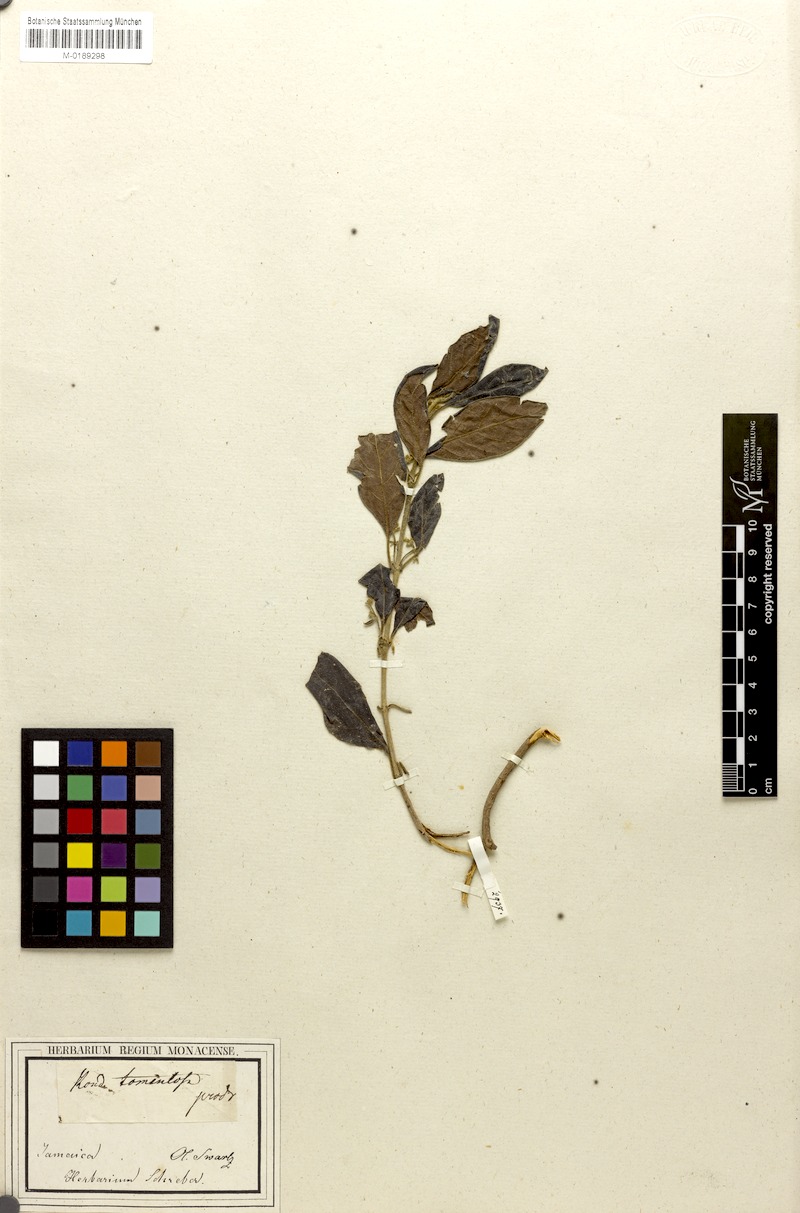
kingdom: Plantae
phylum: Tracheophyta
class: Magnoliopsida
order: Gentianales
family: Rubiaceae
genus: Rondeletia
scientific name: Rondeletia stipularis
